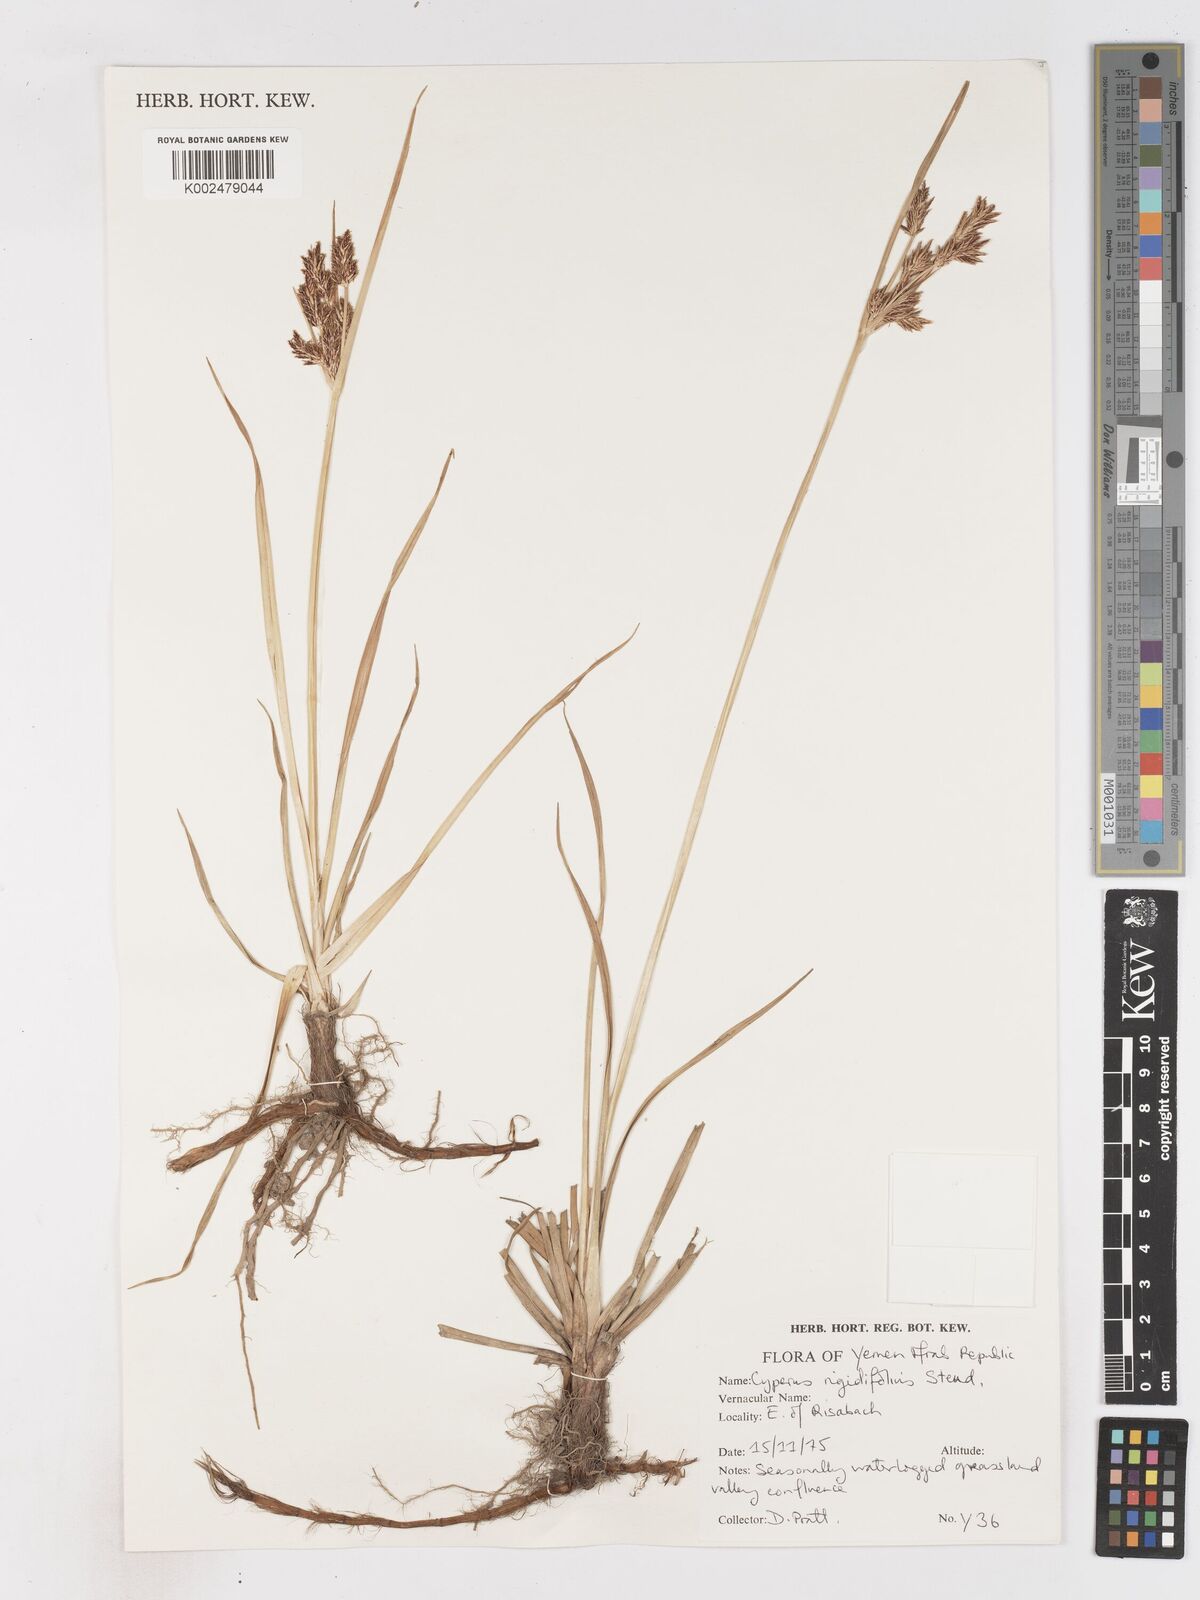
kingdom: Plantae
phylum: Tracheophyta
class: Liliopsida
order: Poales
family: Cyperaceae
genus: Cyperus
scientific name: Cyperus rigidifolius
